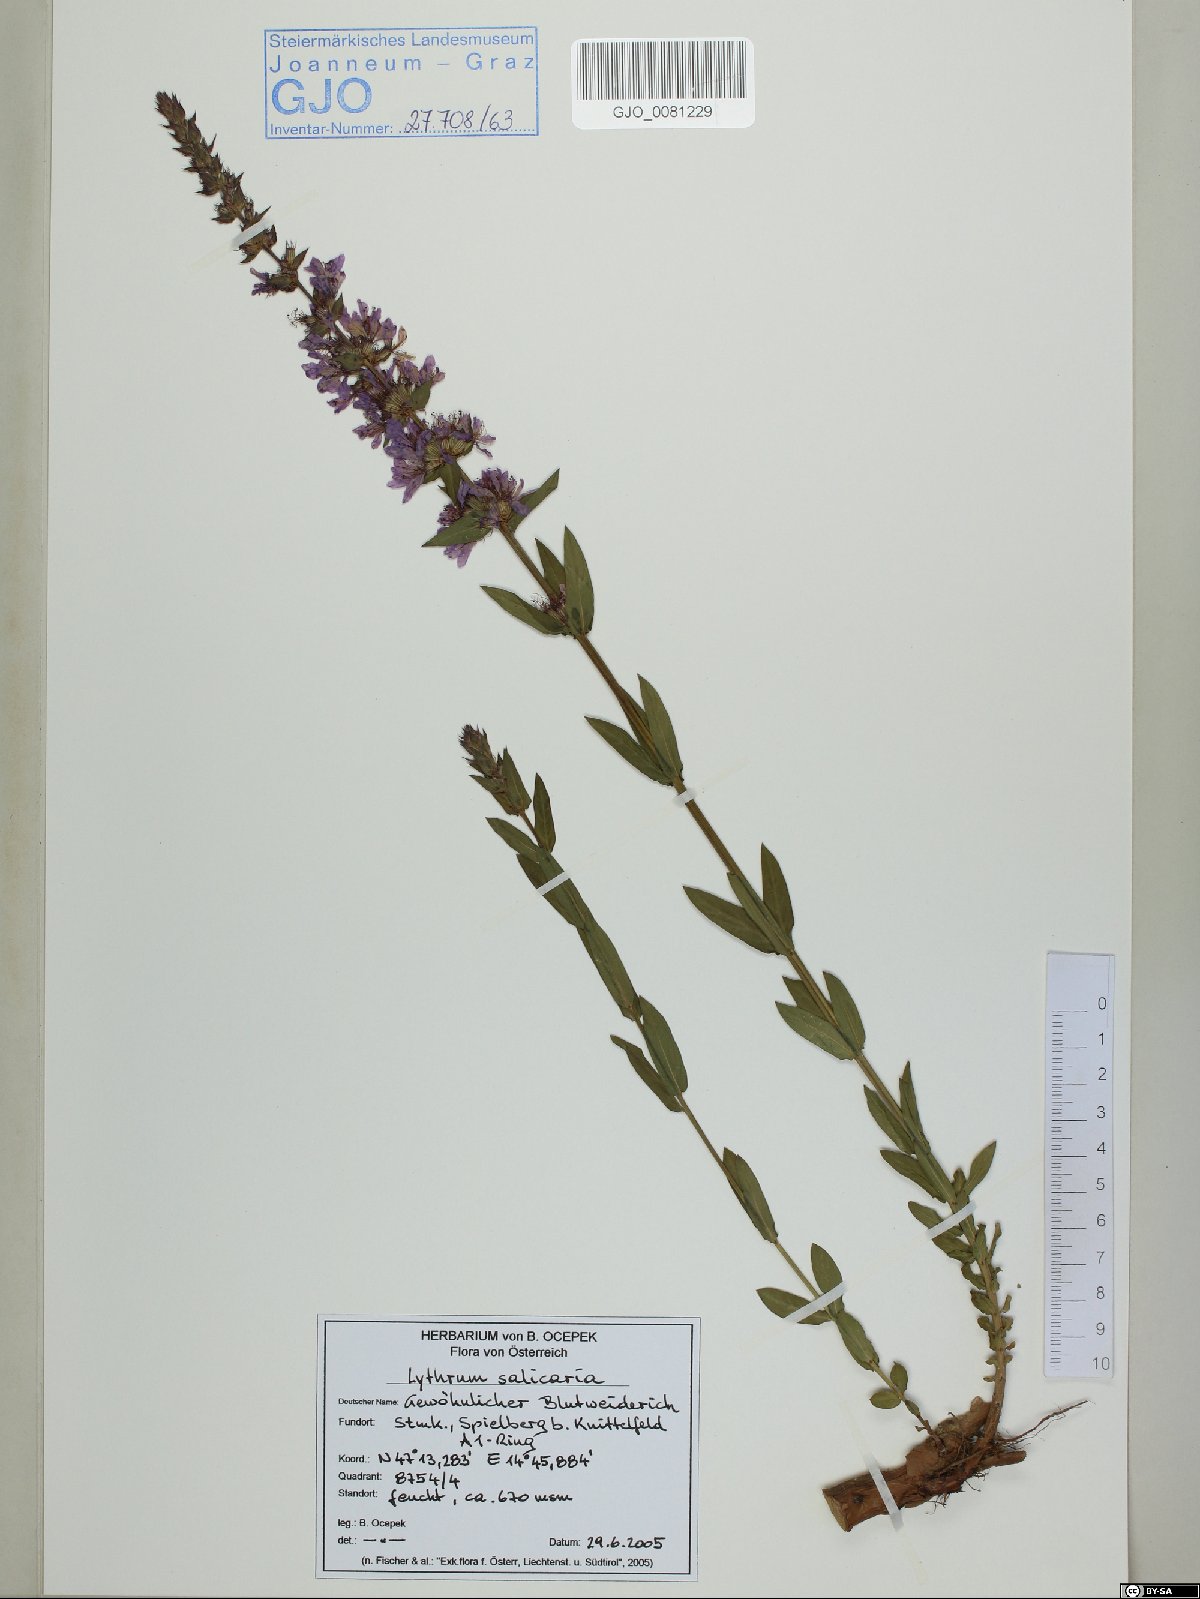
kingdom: Plantae
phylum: Tracheophyta
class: Magnoliopsida
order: Myrtales
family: Lythraceae
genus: Lythrum
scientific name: Lythrum salicaria
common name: Purple loosestrife
